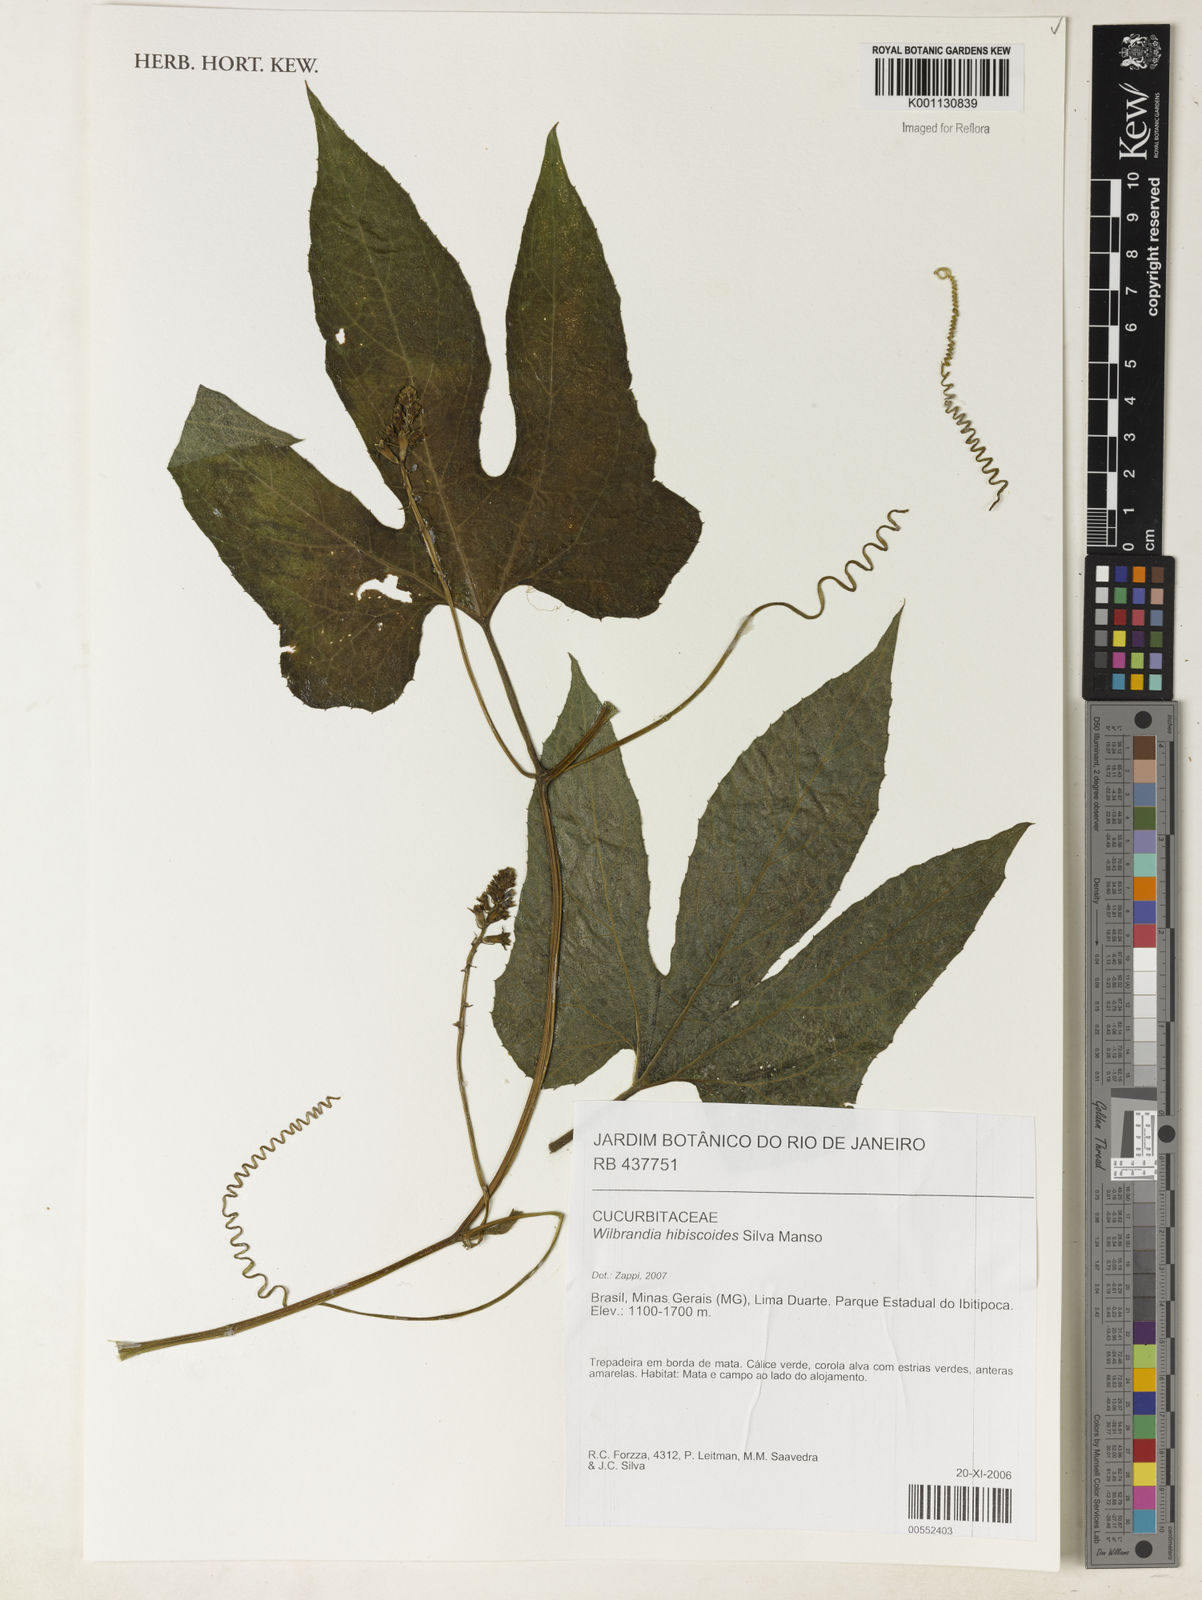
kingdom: Plantae
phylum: Tracheophyta
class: Magnoliopsida
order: Cucurbitales
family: Cucurbitaceae
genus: Wilbrandia
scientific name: Wilbrandia hibiscoides
